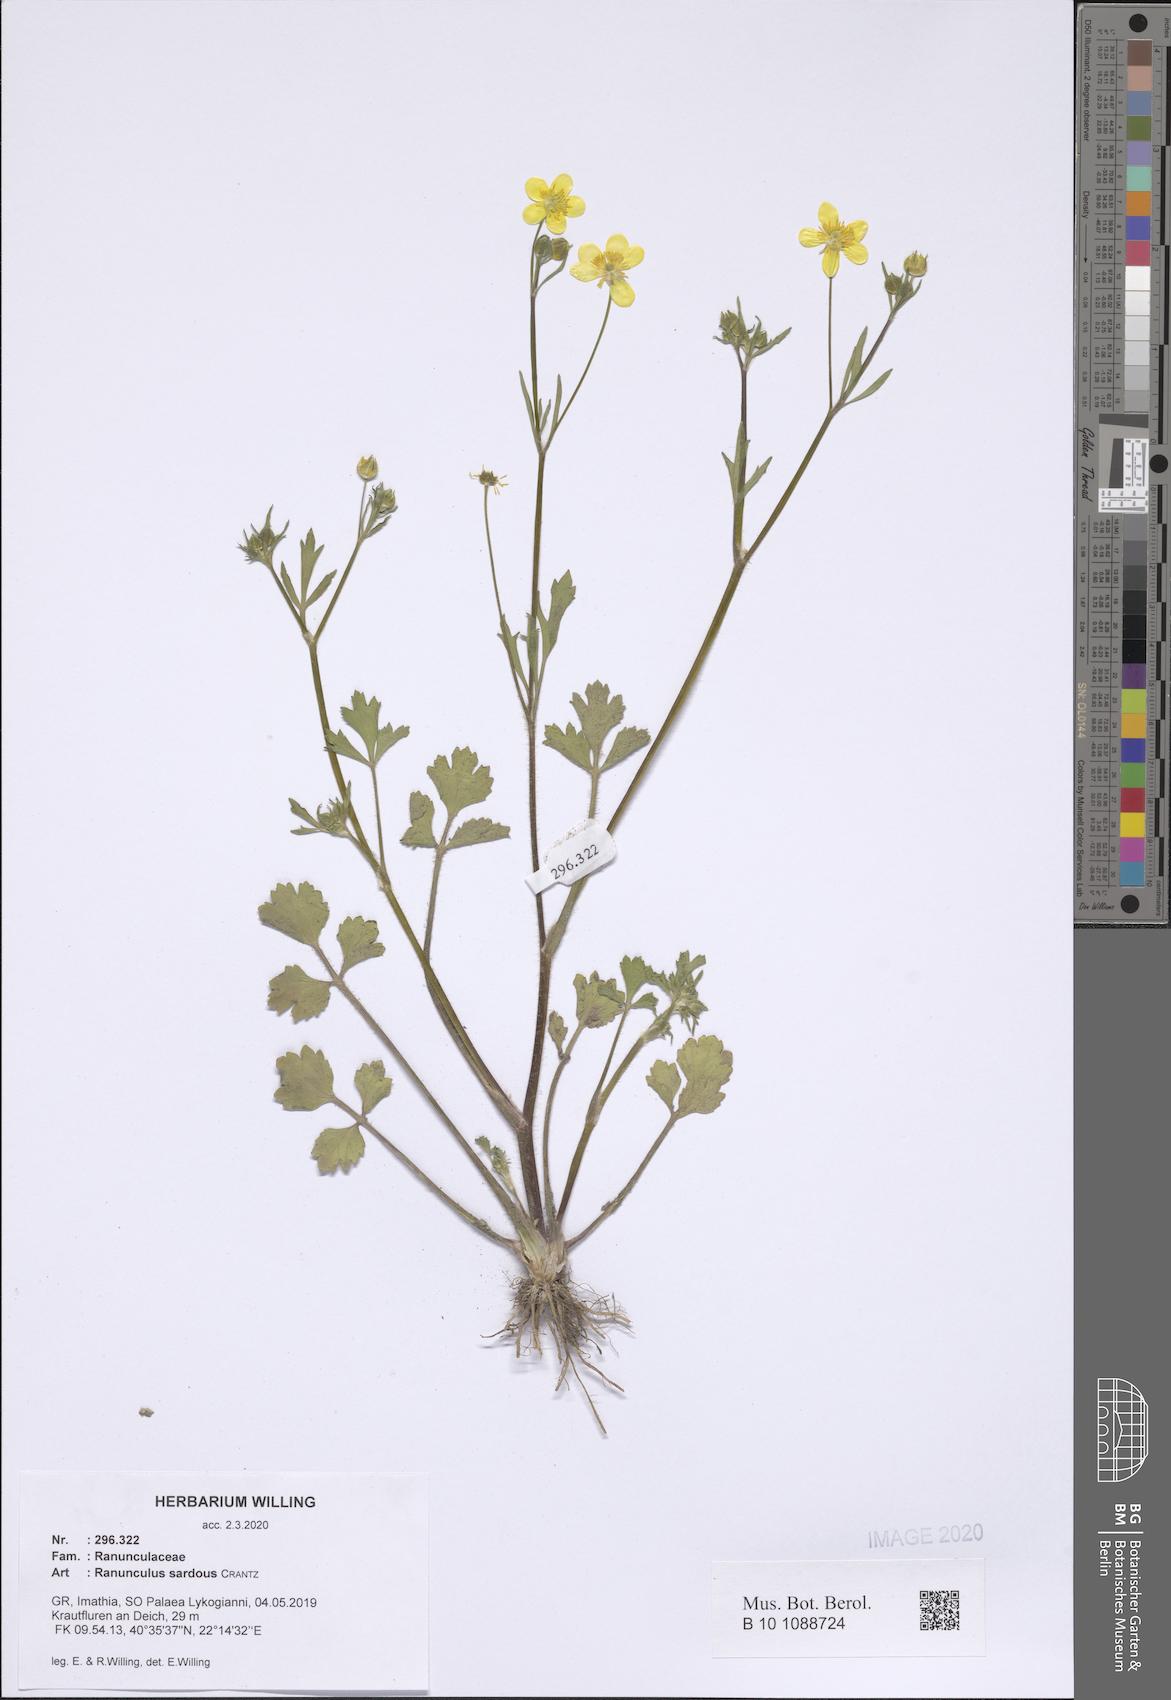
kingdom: Plantae
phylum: Tracheophyta
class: Magnoliopsida
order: Ranunculales
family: Ranunculaceae
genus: Ranunculus
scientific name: Ranunculus sardous
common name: Hairy buttercup
